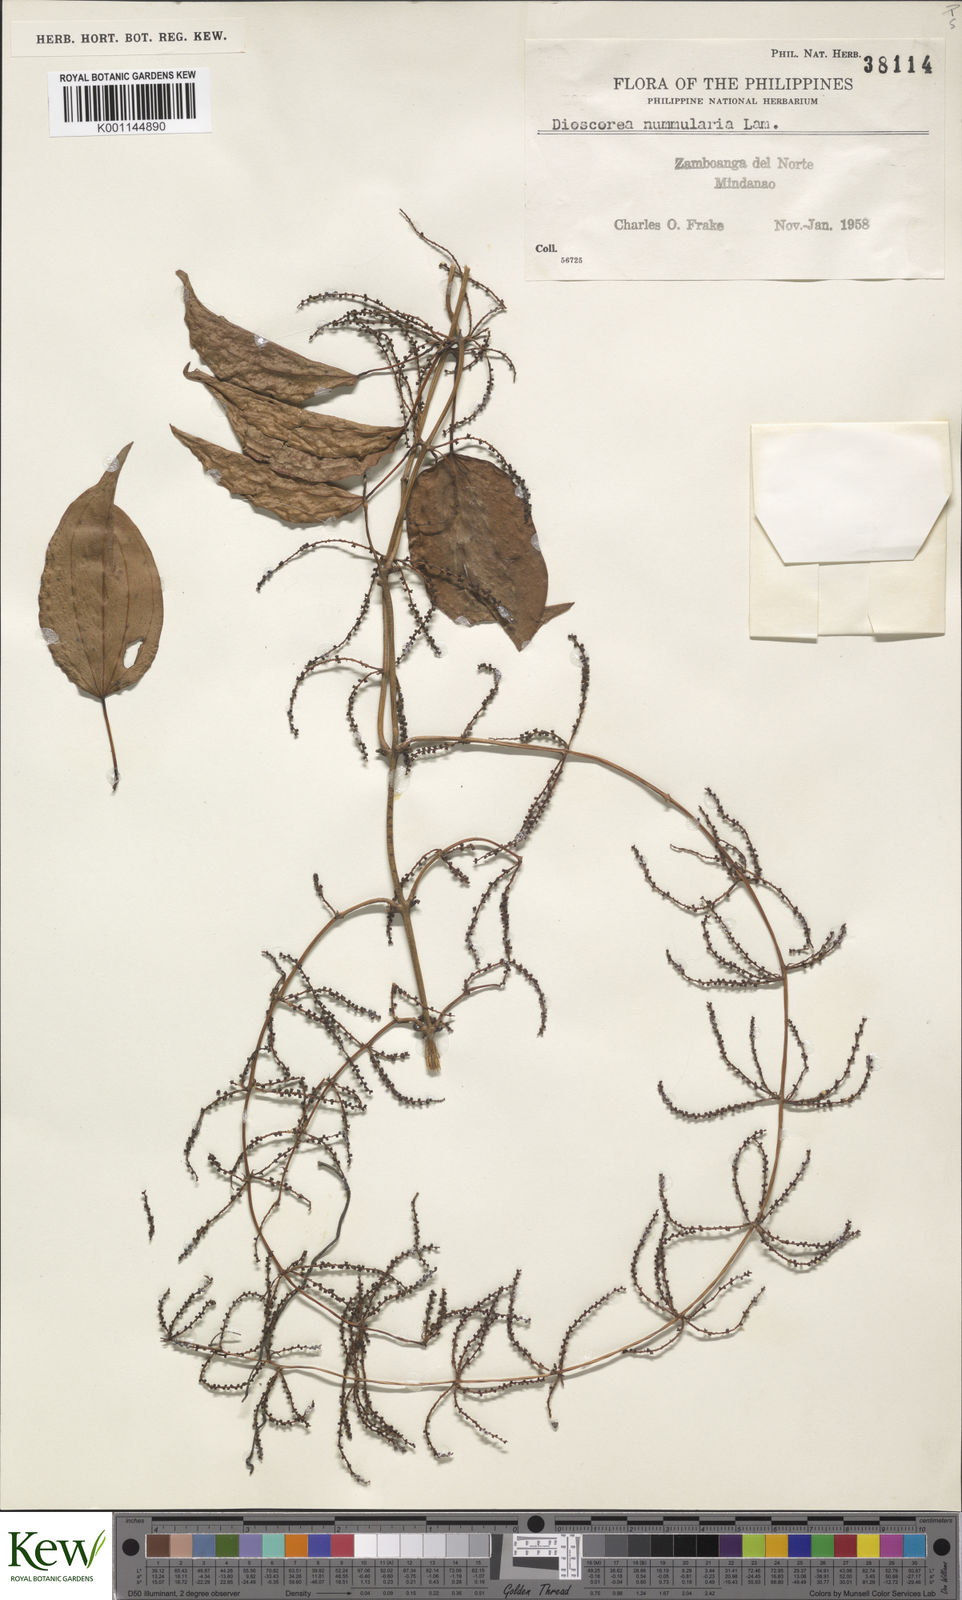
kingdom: Plantae
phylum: Tracheophyta
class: Liliopsida
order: Dioscoreales
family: Dioscoreaceae
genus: Dioscorea
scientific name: Dioscorea nummularia
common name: Pacific yam
